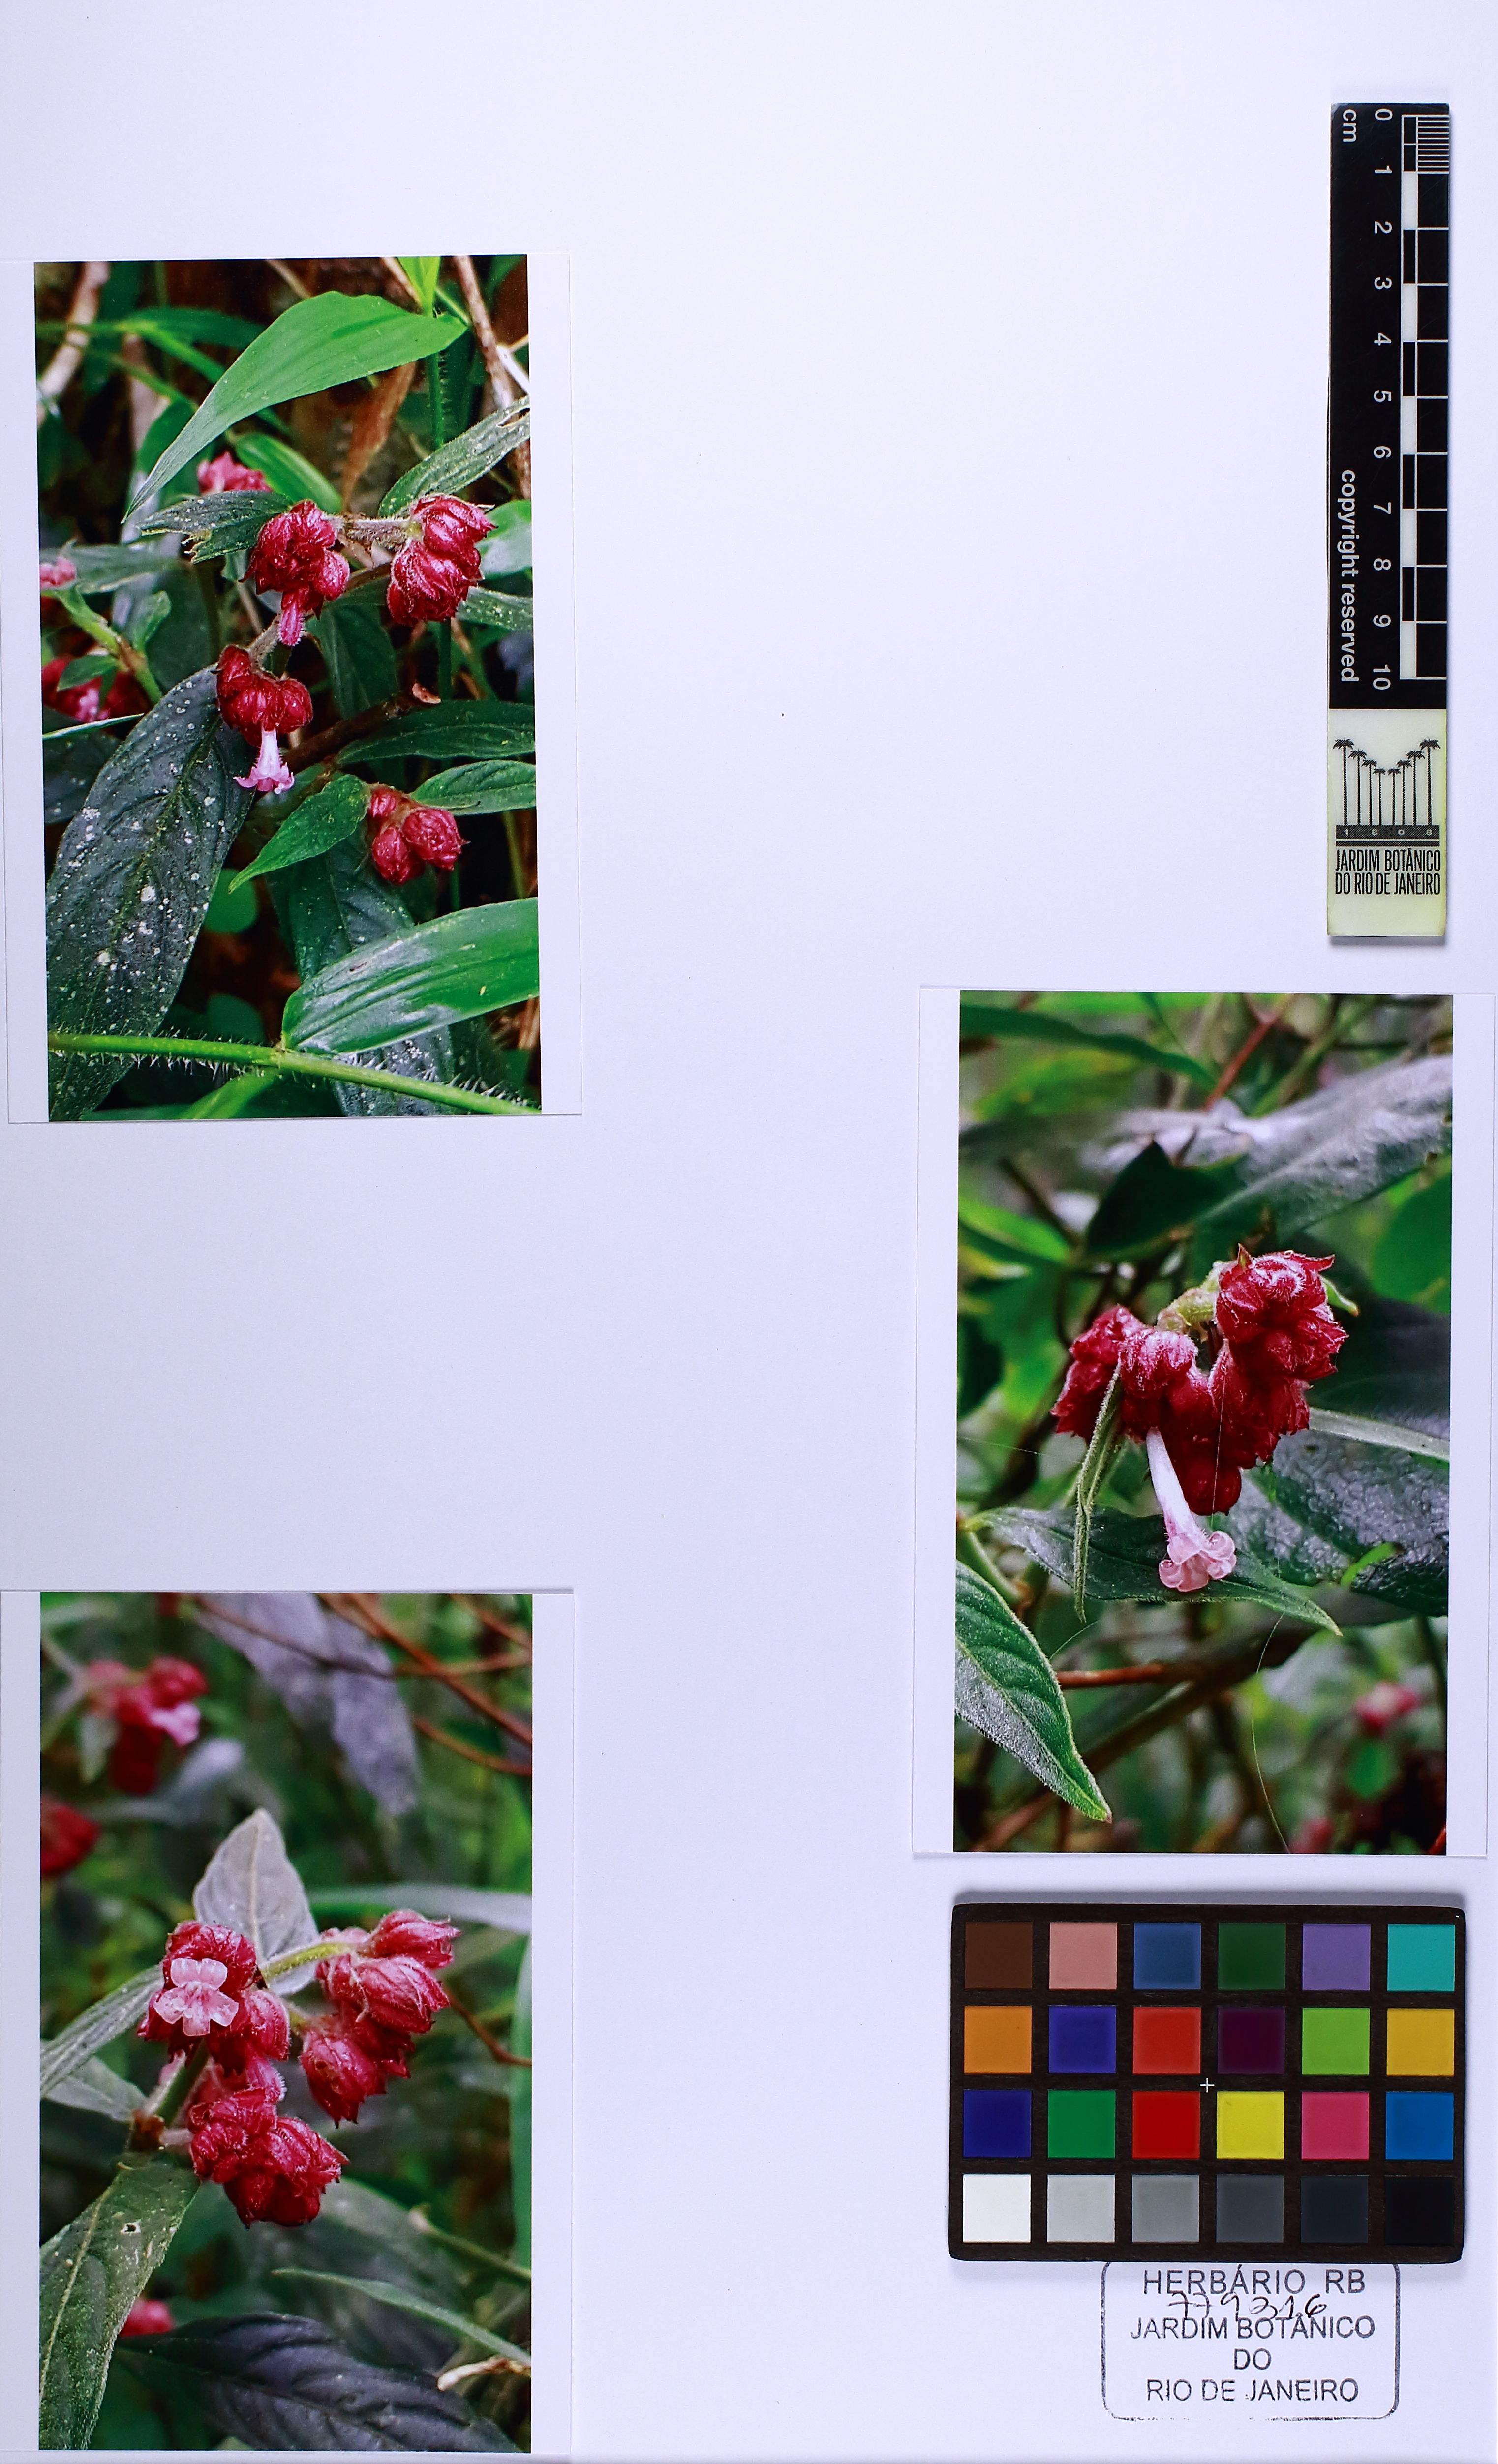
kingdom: Plantae
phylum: Tracheophyta
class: Magnoliopsida
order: Gentianales
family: Rubiaceae
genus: Psychotria
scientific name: Psychotria stachyoides
